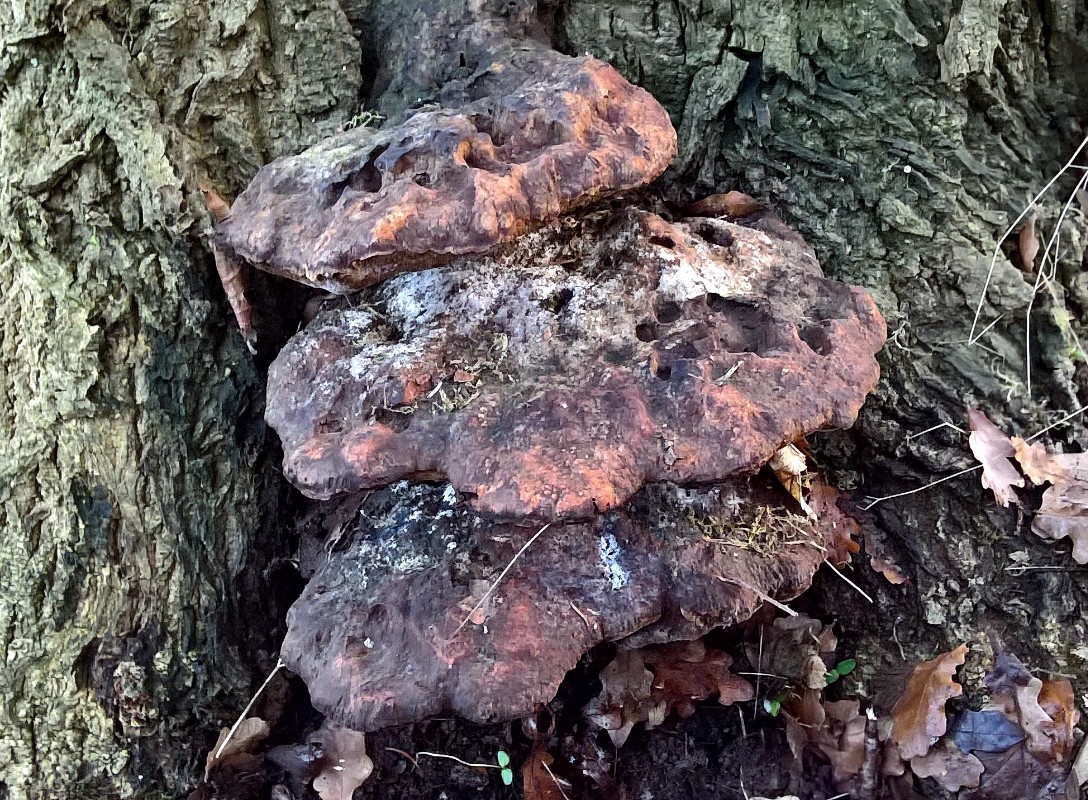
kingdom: Fungi
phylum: Basidiomycota
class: Agaricomycetes
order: Hymenochaetales
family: Hymenochaetaceae
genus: Pseudoinonotus
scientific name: Pseudoinonotus dryadeus
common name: ege-spejlporesvamp
